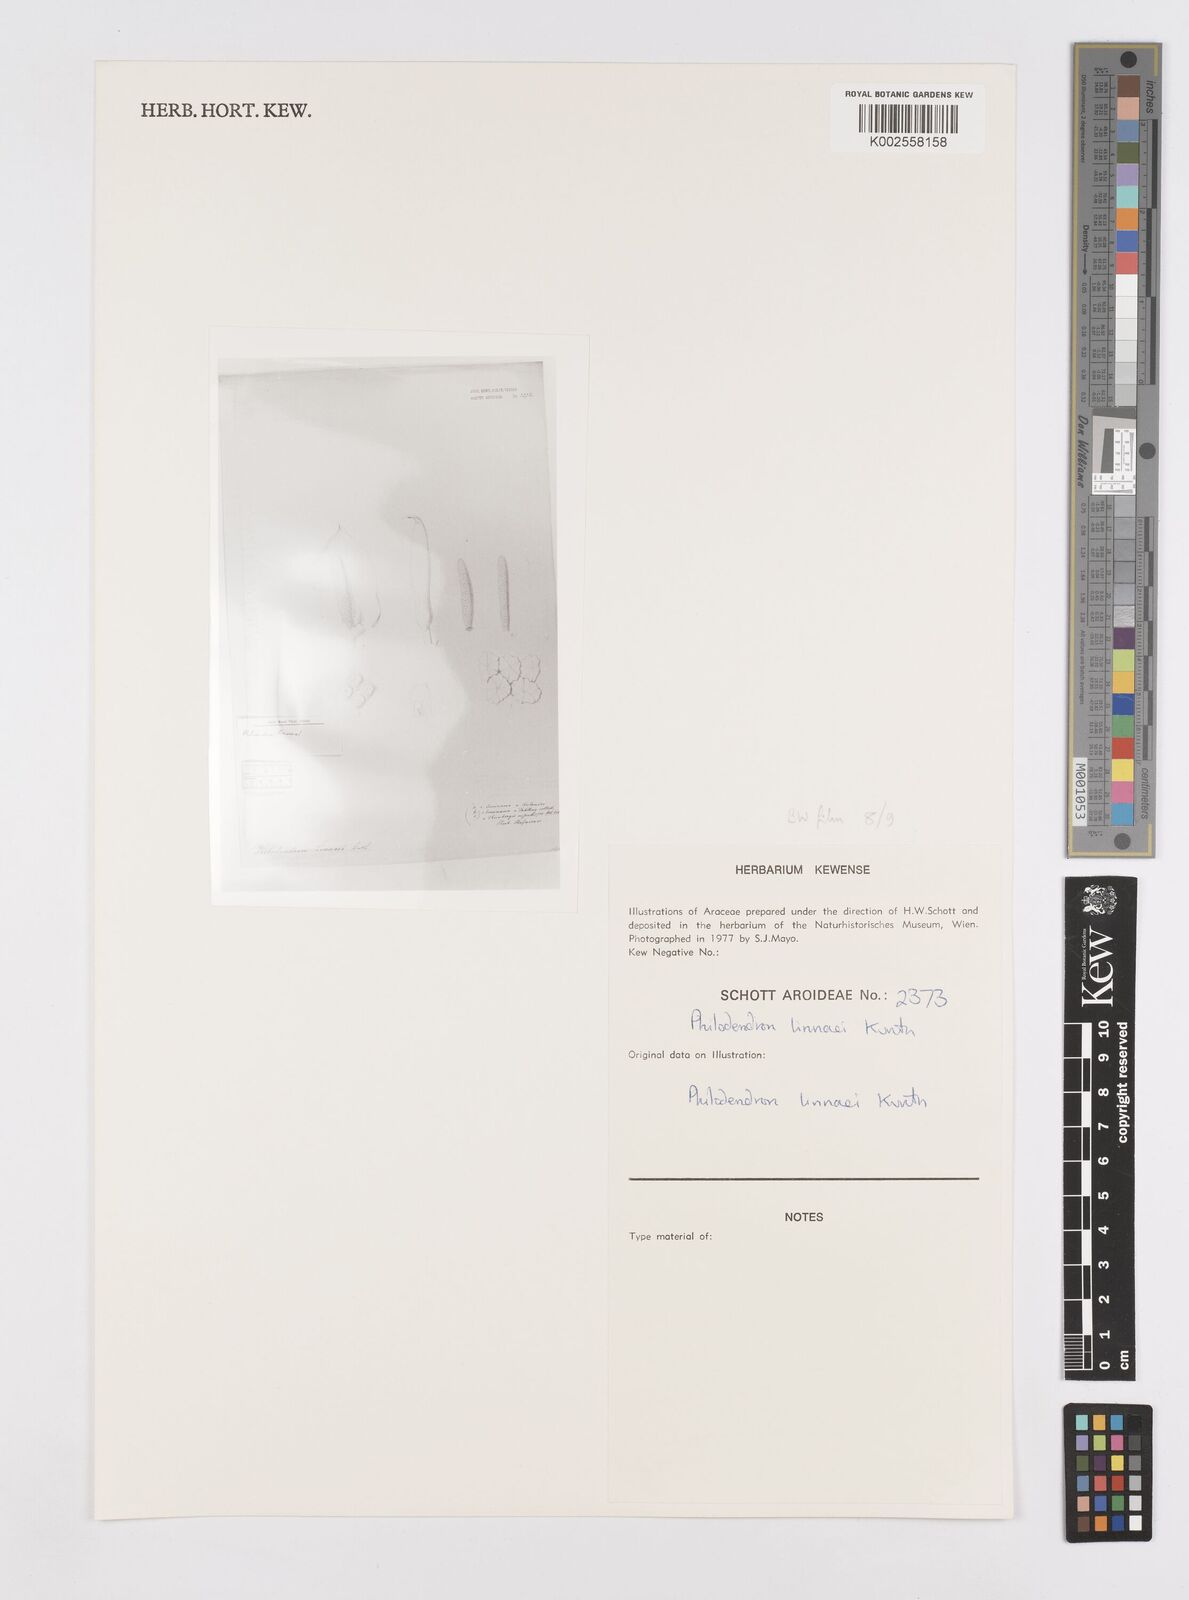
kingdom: Plantae
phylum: Tracheophyta
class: Liliopsida
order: Alismatales
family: Araceae
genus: Philodendron
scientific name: Philodendron linnaei
